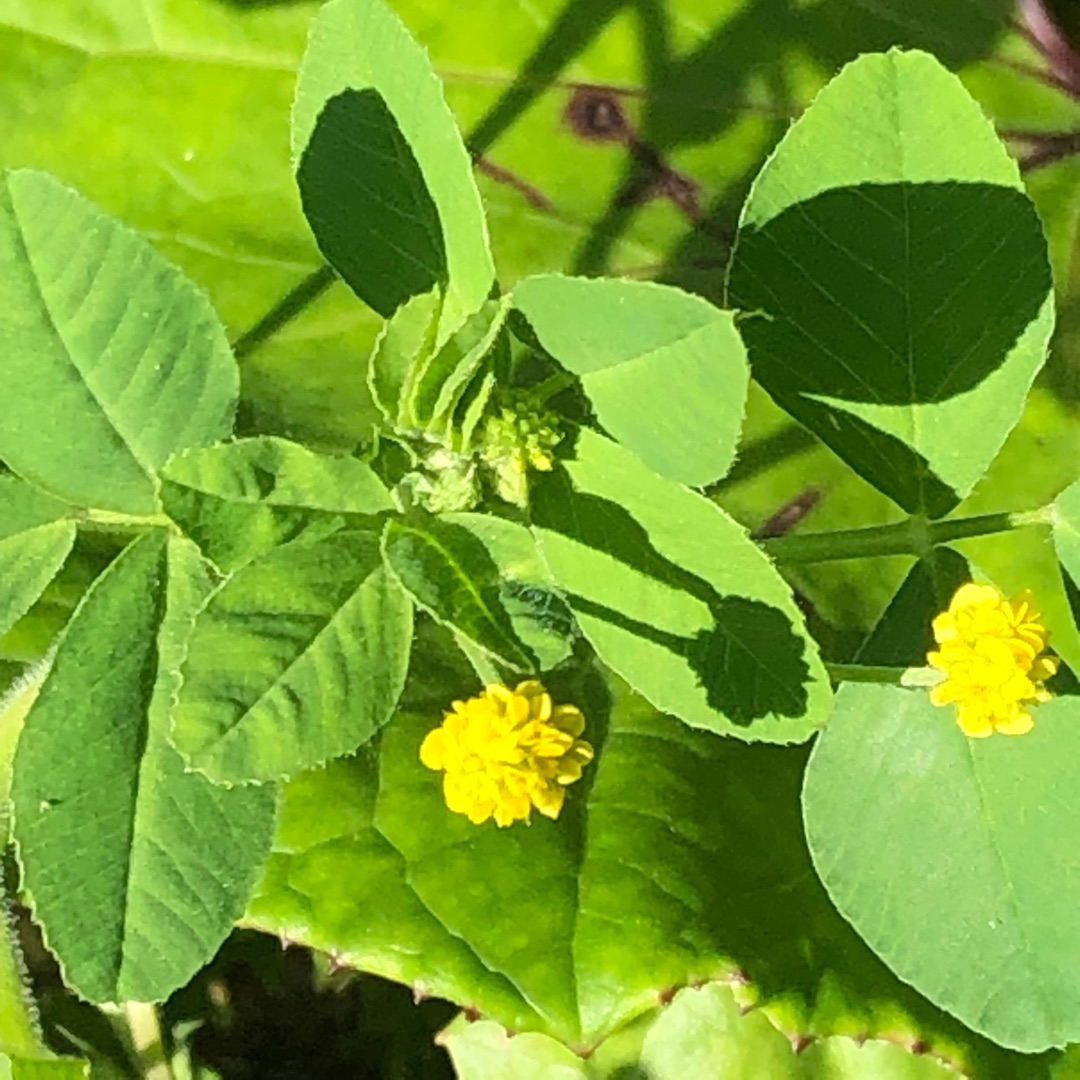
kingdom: Plantae
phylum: Tracheophyta
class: Magnoliopsida
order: Fabales
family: Fabaceae
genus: Medicago
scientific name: Medicago lupulina
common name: Humle-sneglebælg
